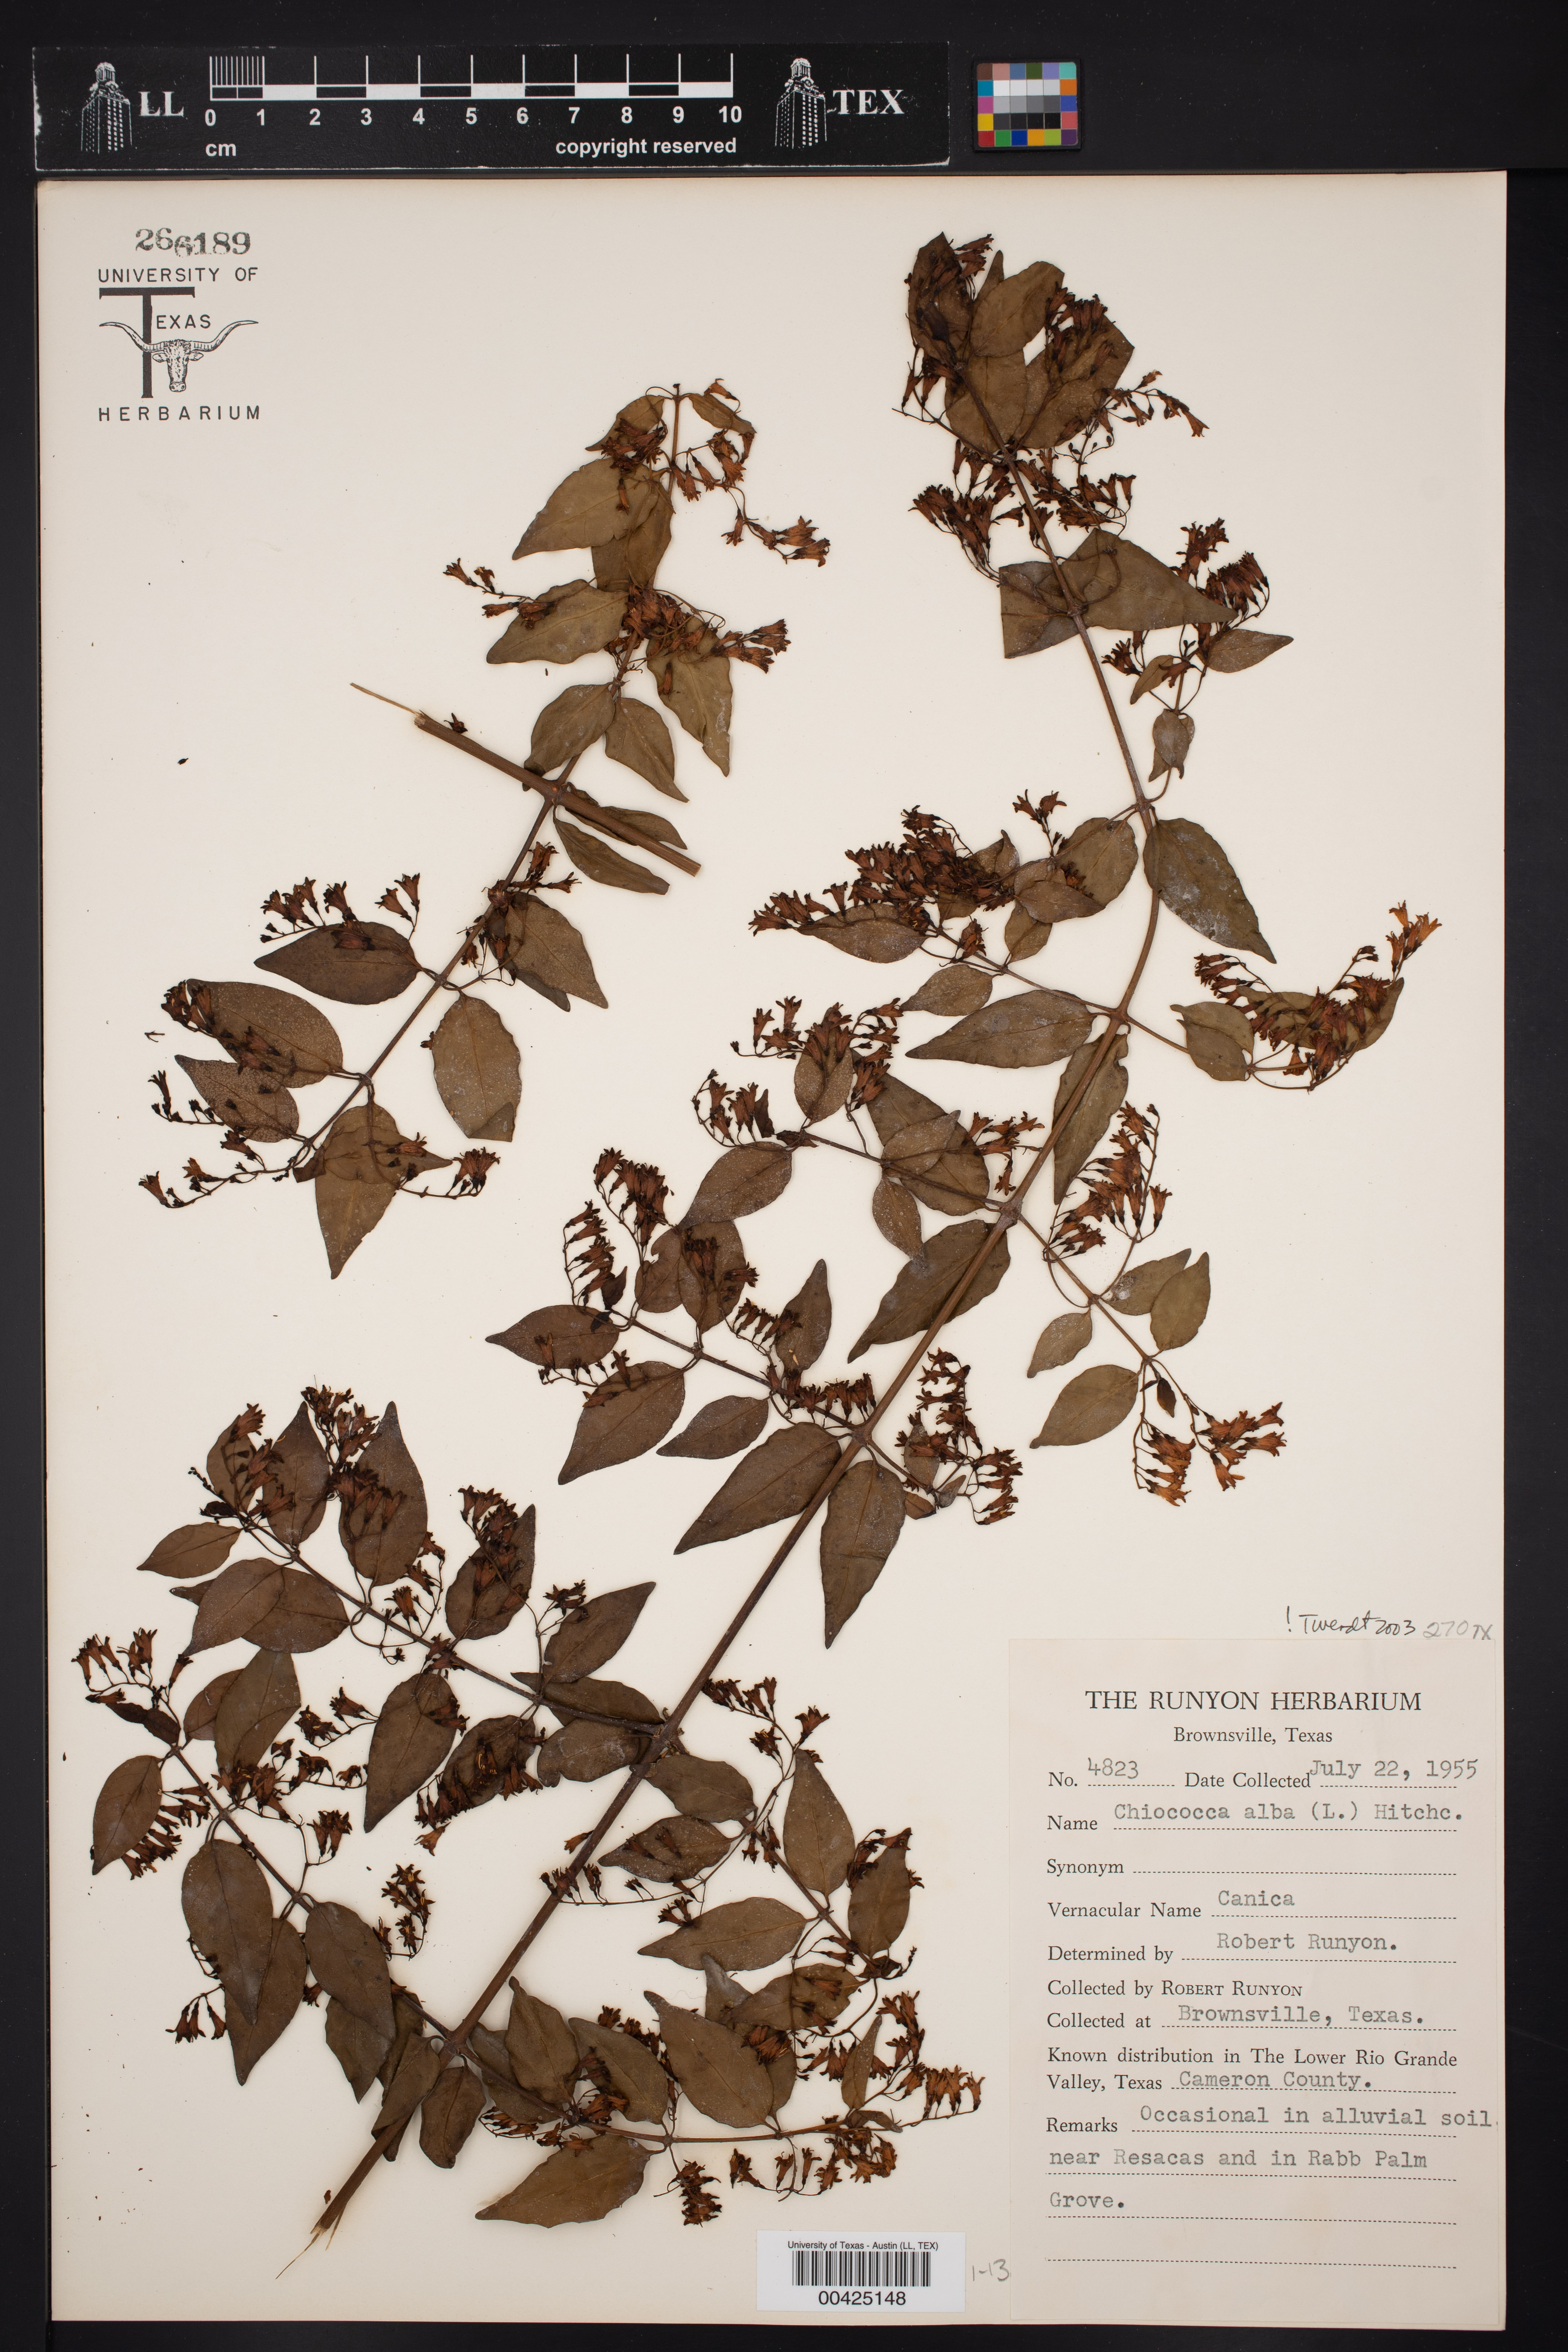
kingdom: Plantae
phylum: Tracheophyta
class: Magnoliopsida
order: Gentianales
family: Rubiaceae
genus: Chiococca
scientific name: Chiococca alba
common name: Snowberry
